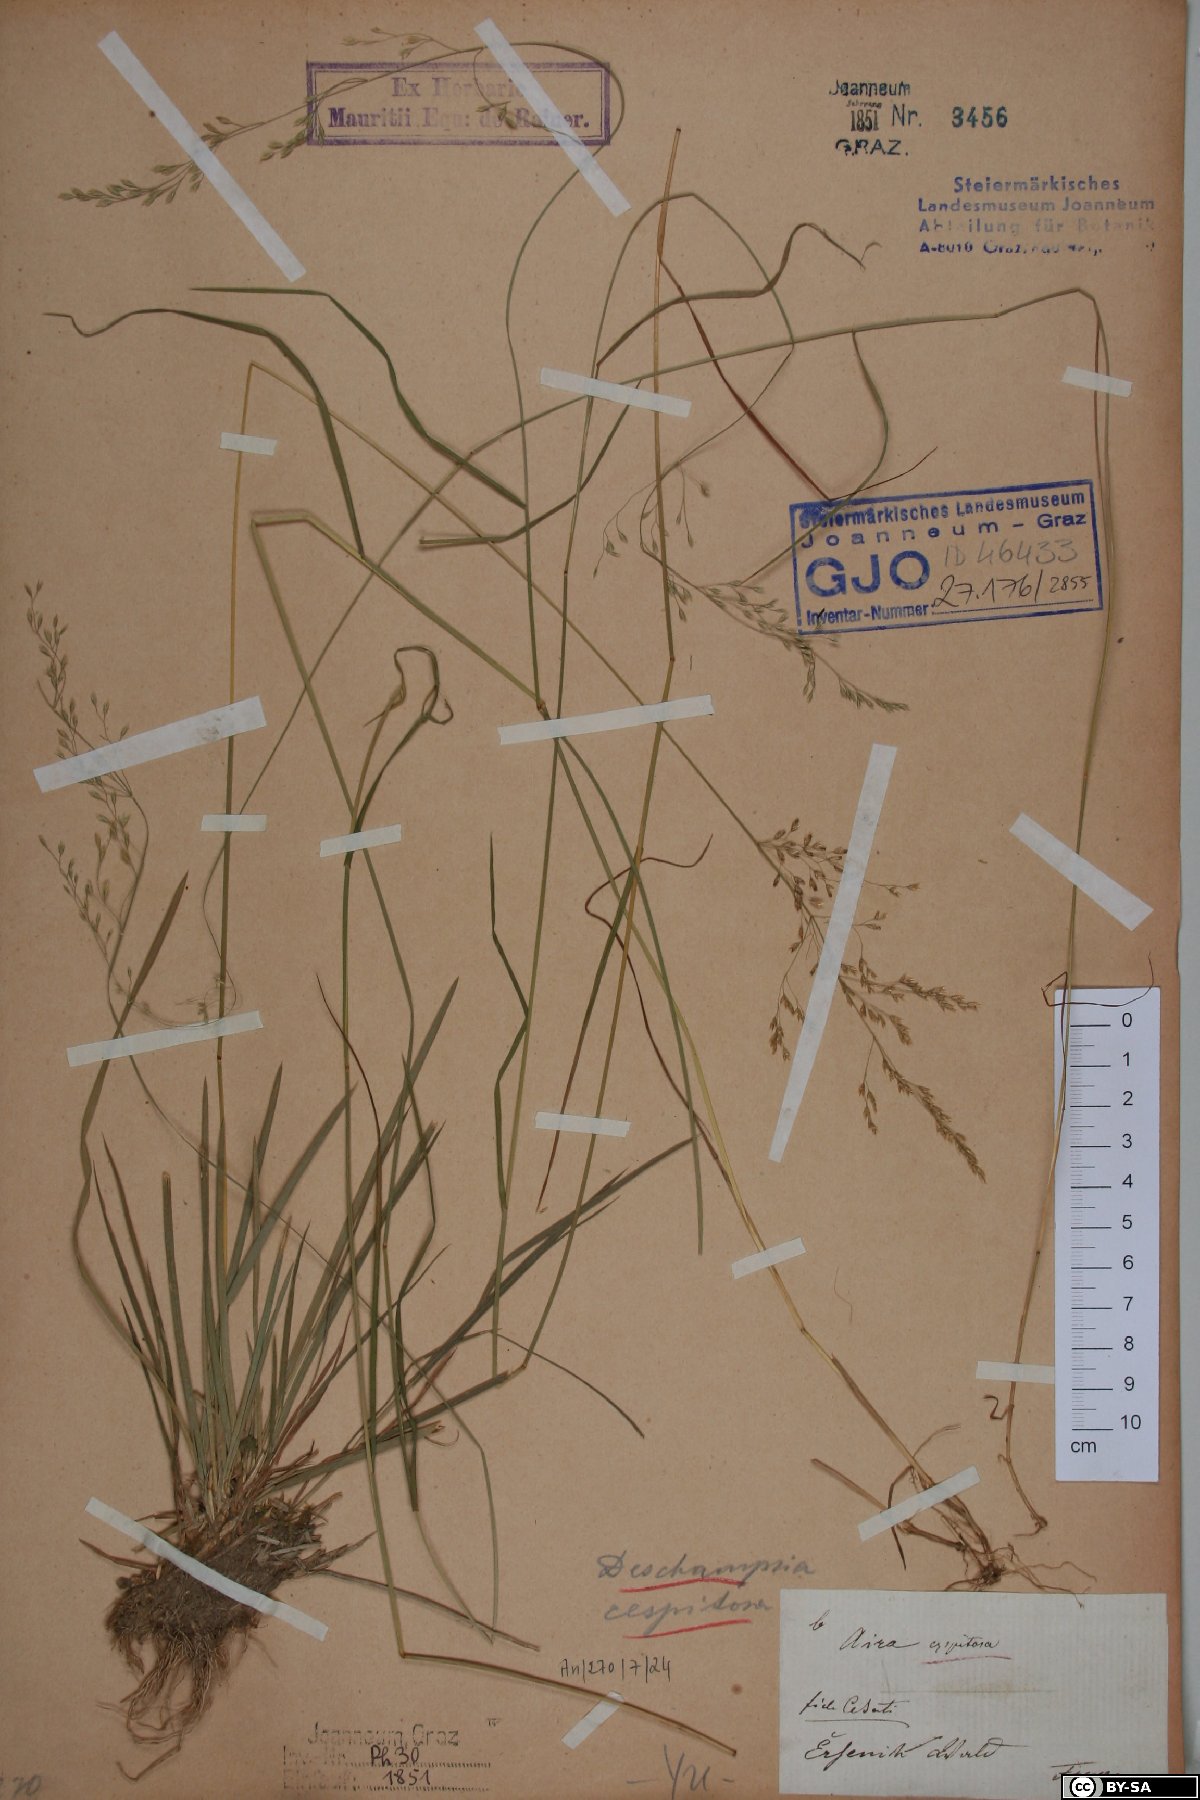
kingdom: Plantae
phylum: Tracheophyta
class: Liliopsida
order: Poales
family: Poaceae
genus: Deschampsia
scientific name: Deschampsia cespitosa
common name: Tufted hair-grass
